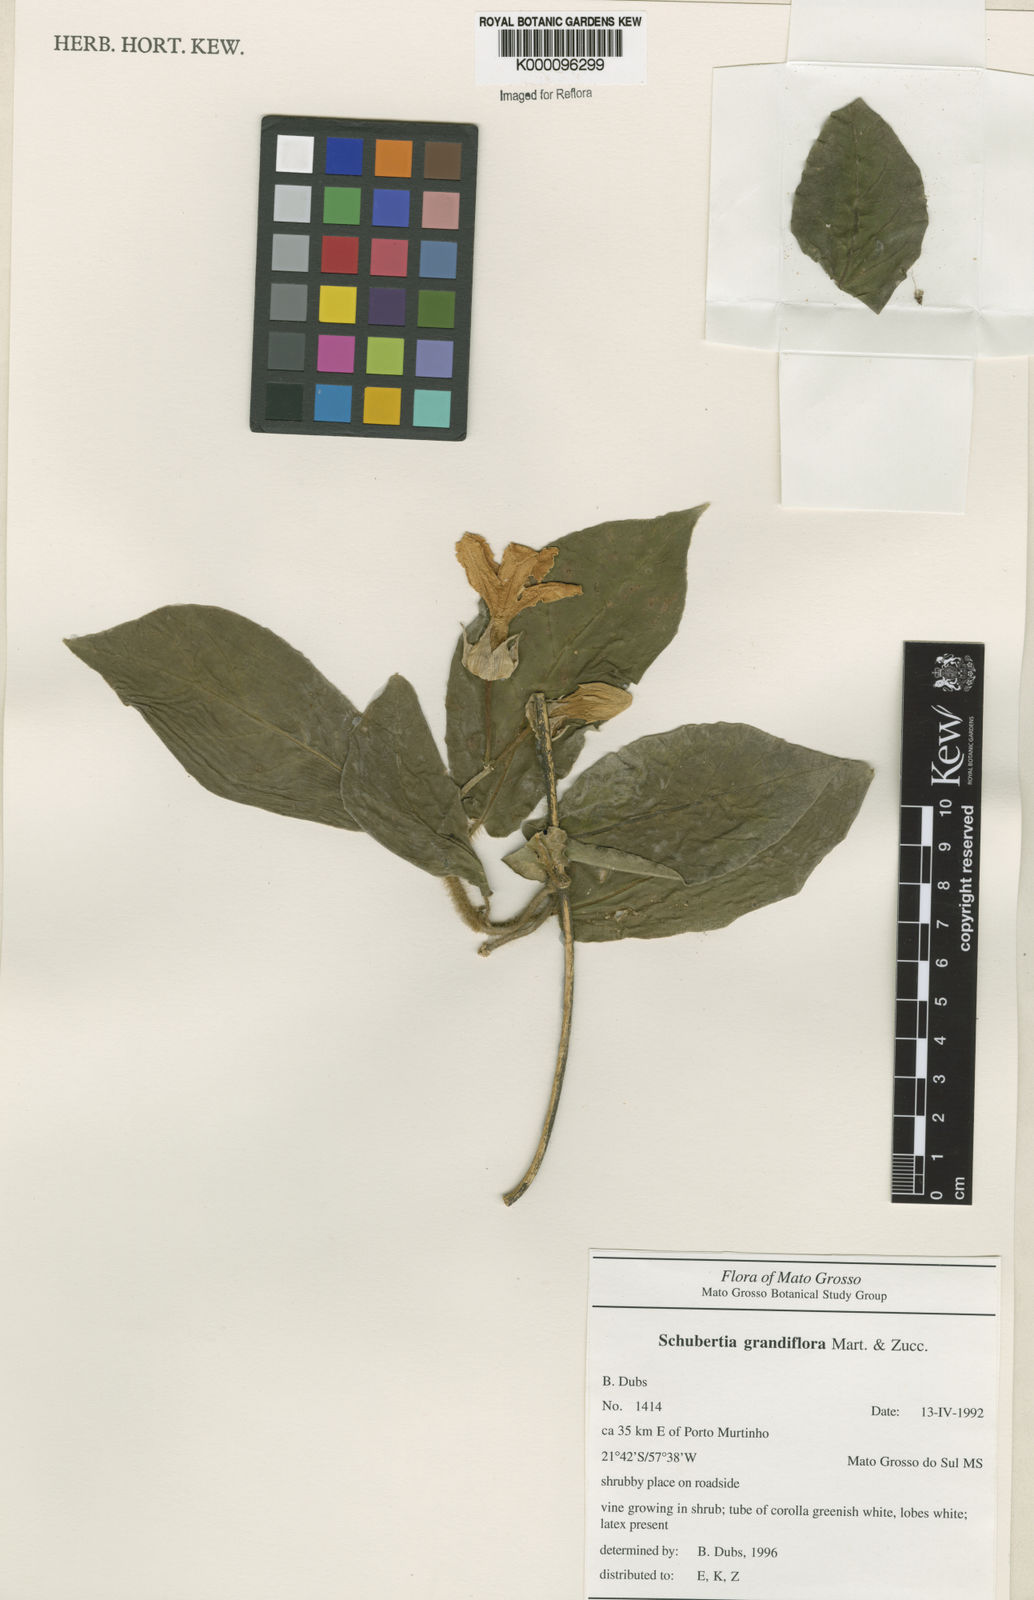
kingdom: Plantae
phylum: Tracheophyta
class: Magnoliopsida
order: Gentianales
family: Apocynaceae
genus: Macroscepis
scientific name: Macroscepis grandiflora
